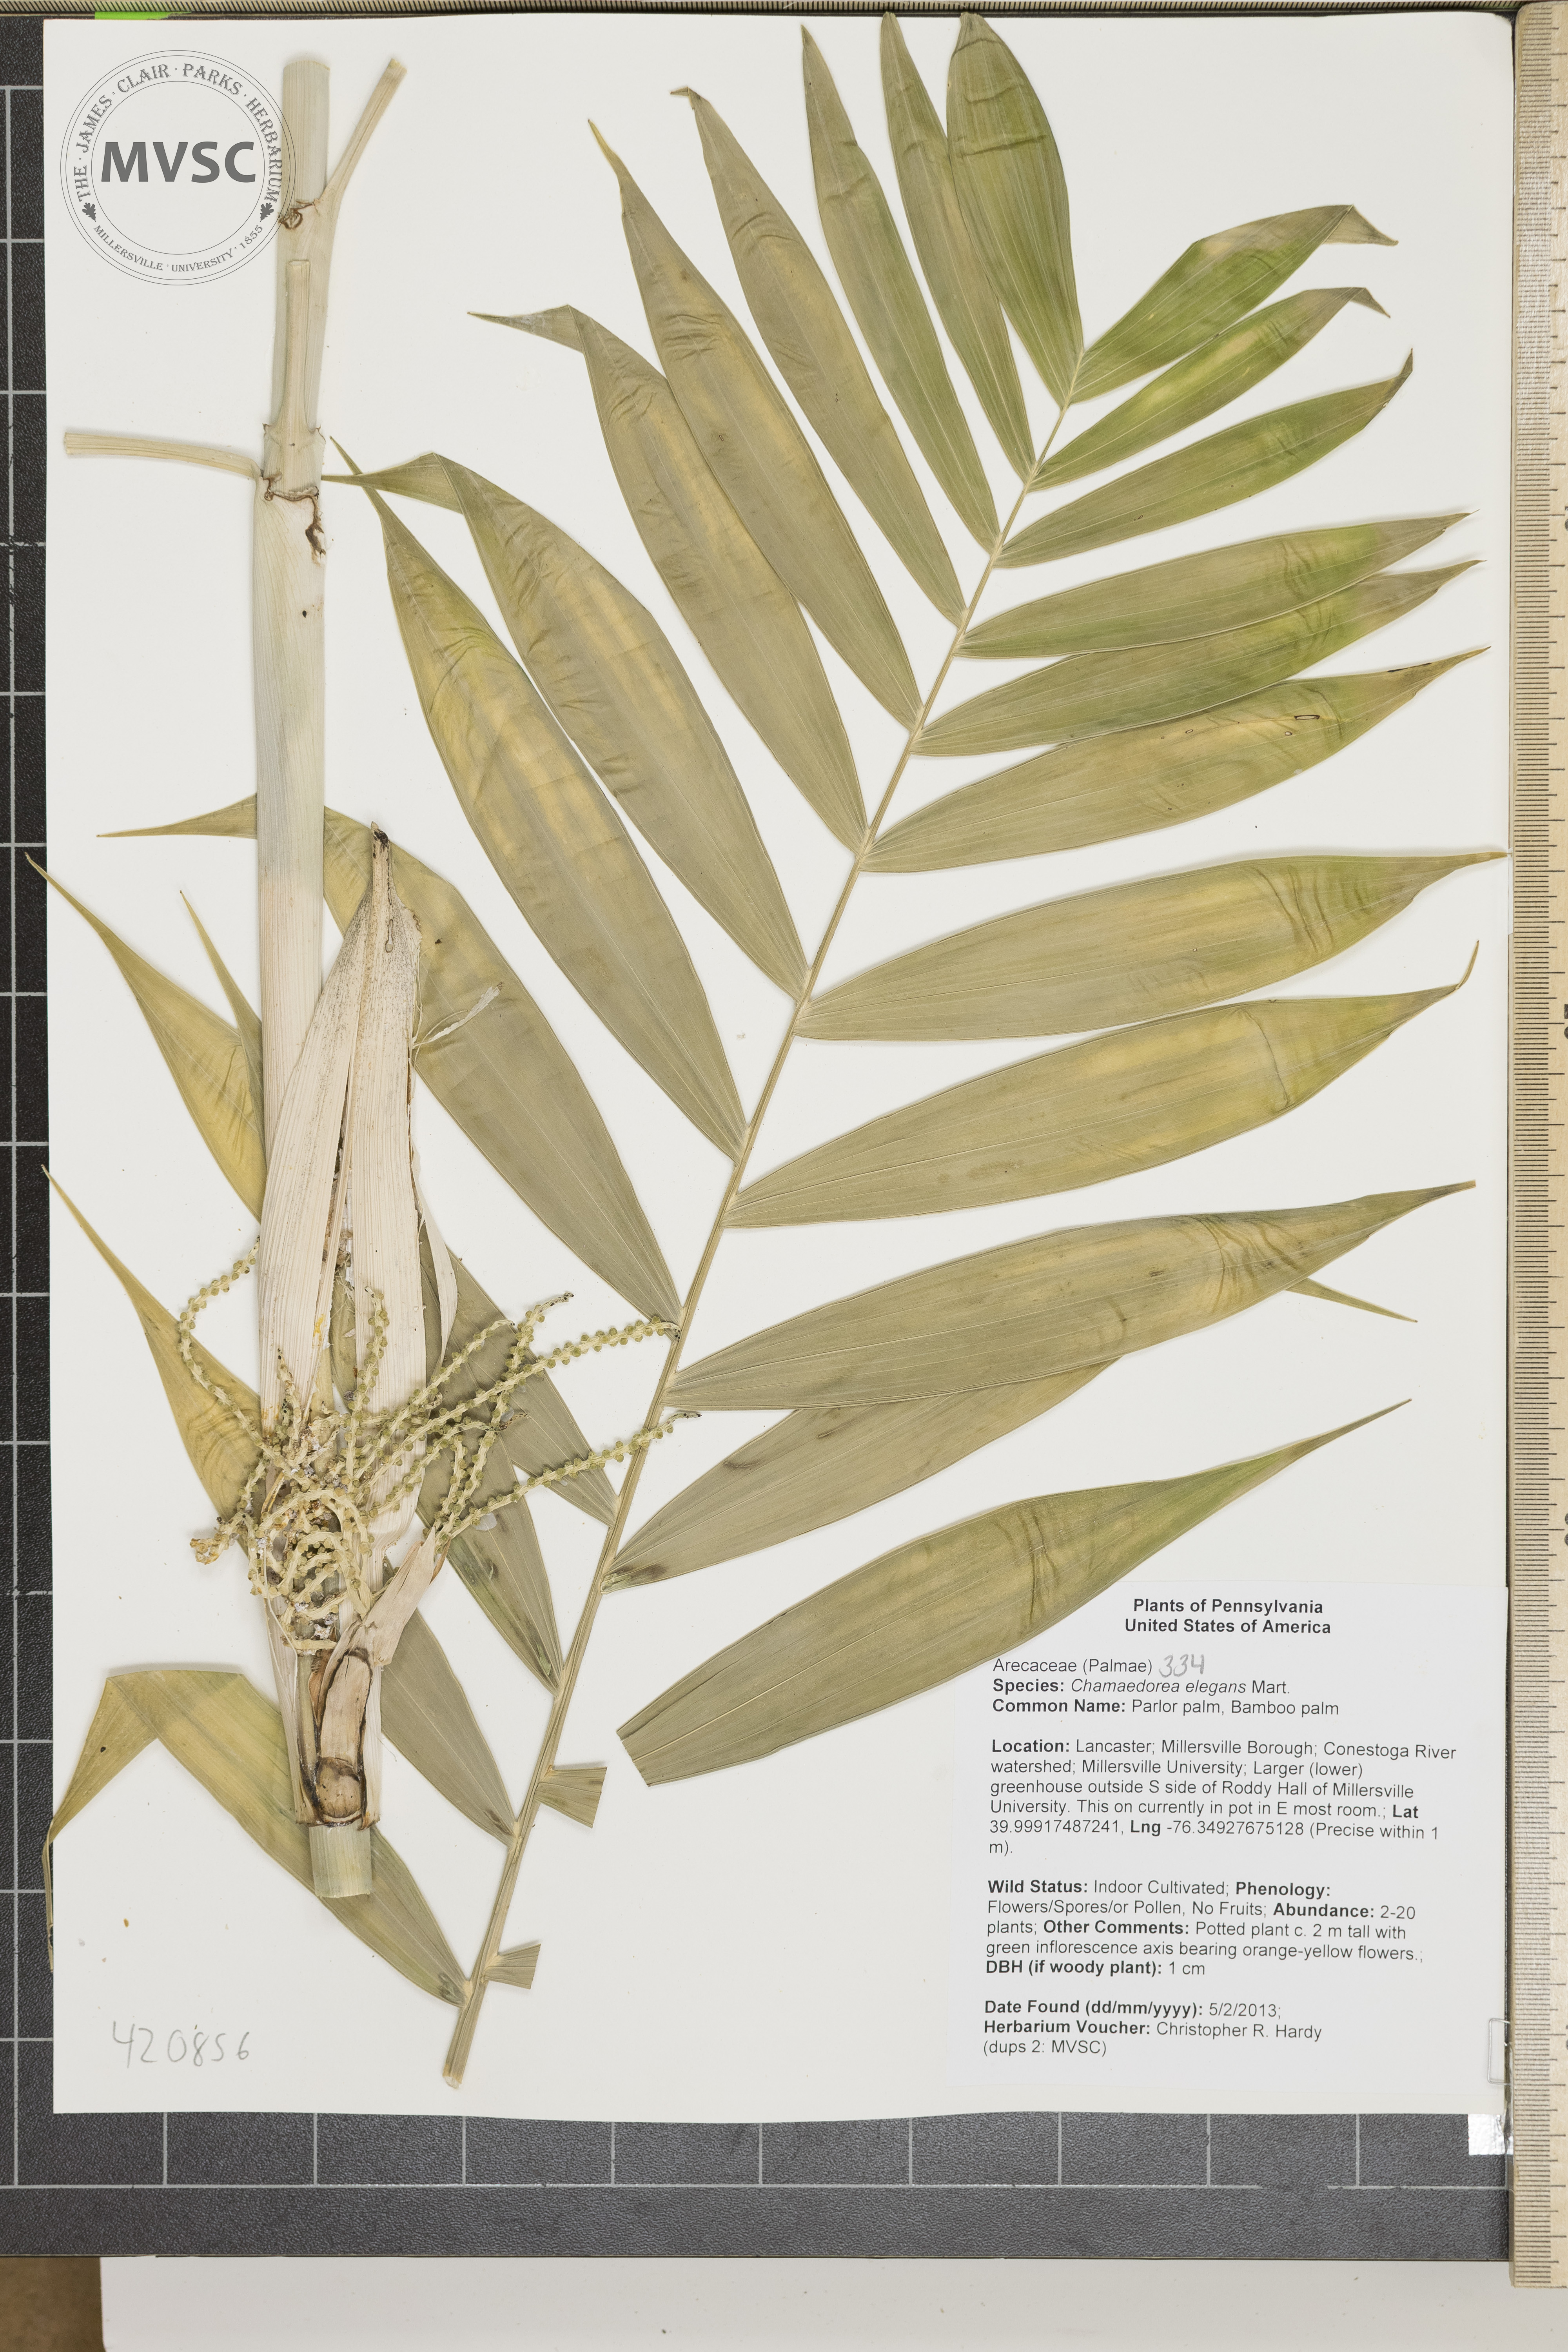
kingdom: Plantae
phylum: Tracheophyta
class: Liliopsida
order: Arecales
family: Arecaceae
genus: Chamaedorea
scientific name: Chamaedorea elegans
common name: Bamboo Palm
